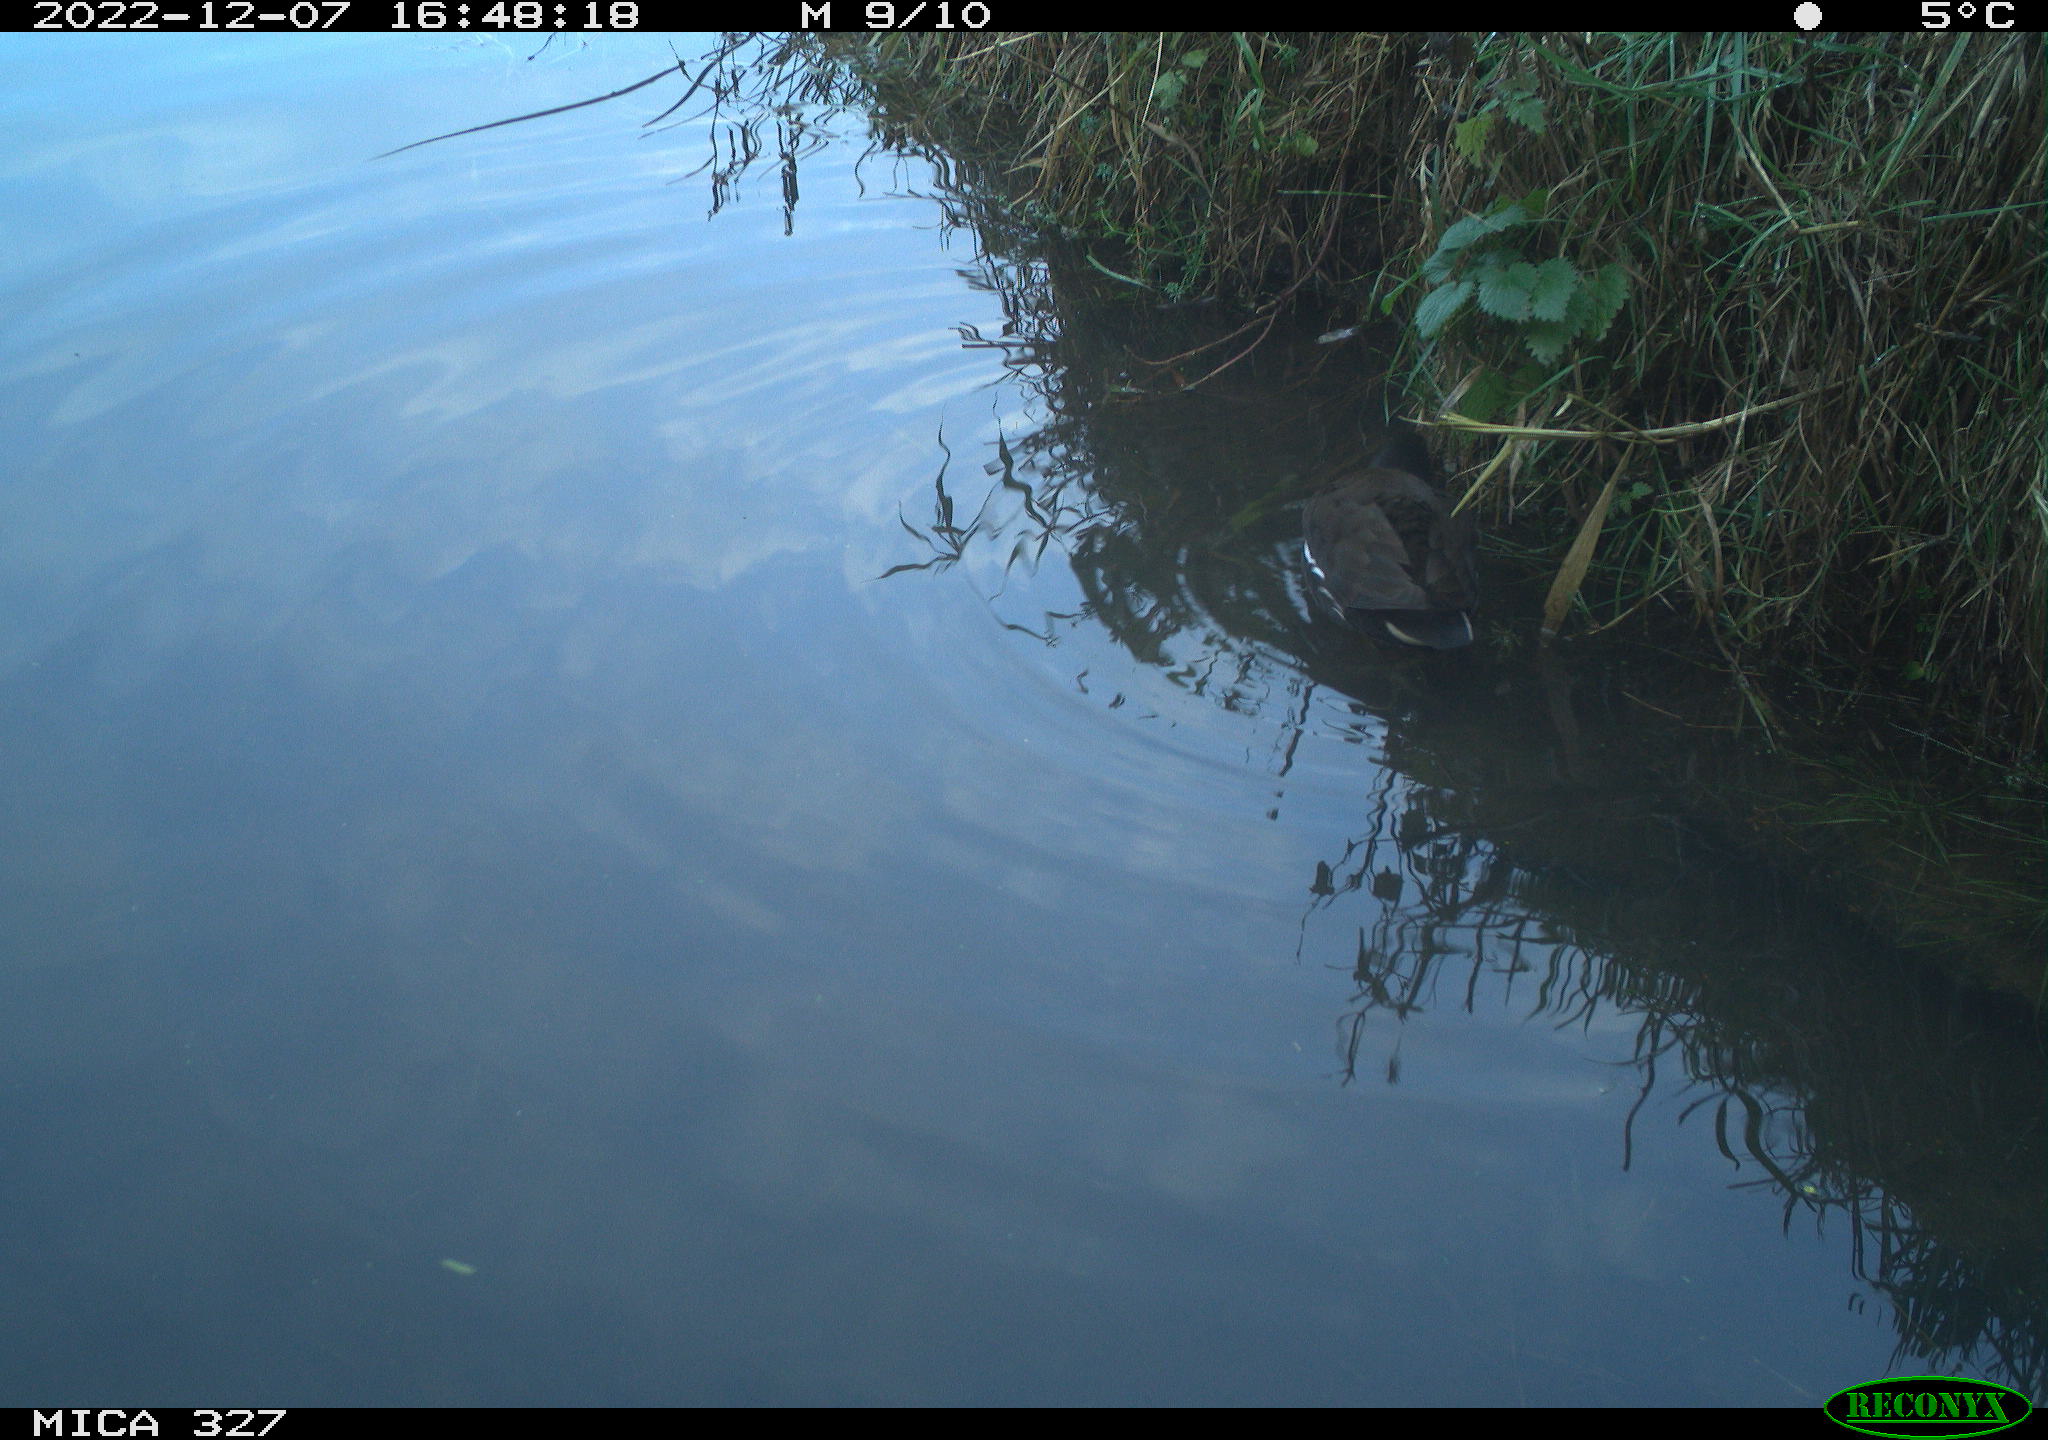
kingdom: Animalia
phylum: Chordata
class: Aves
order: Gruiformes
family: Rallidae
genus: Gallinula
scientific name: Gallinula chloropus
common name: Common moorhen
